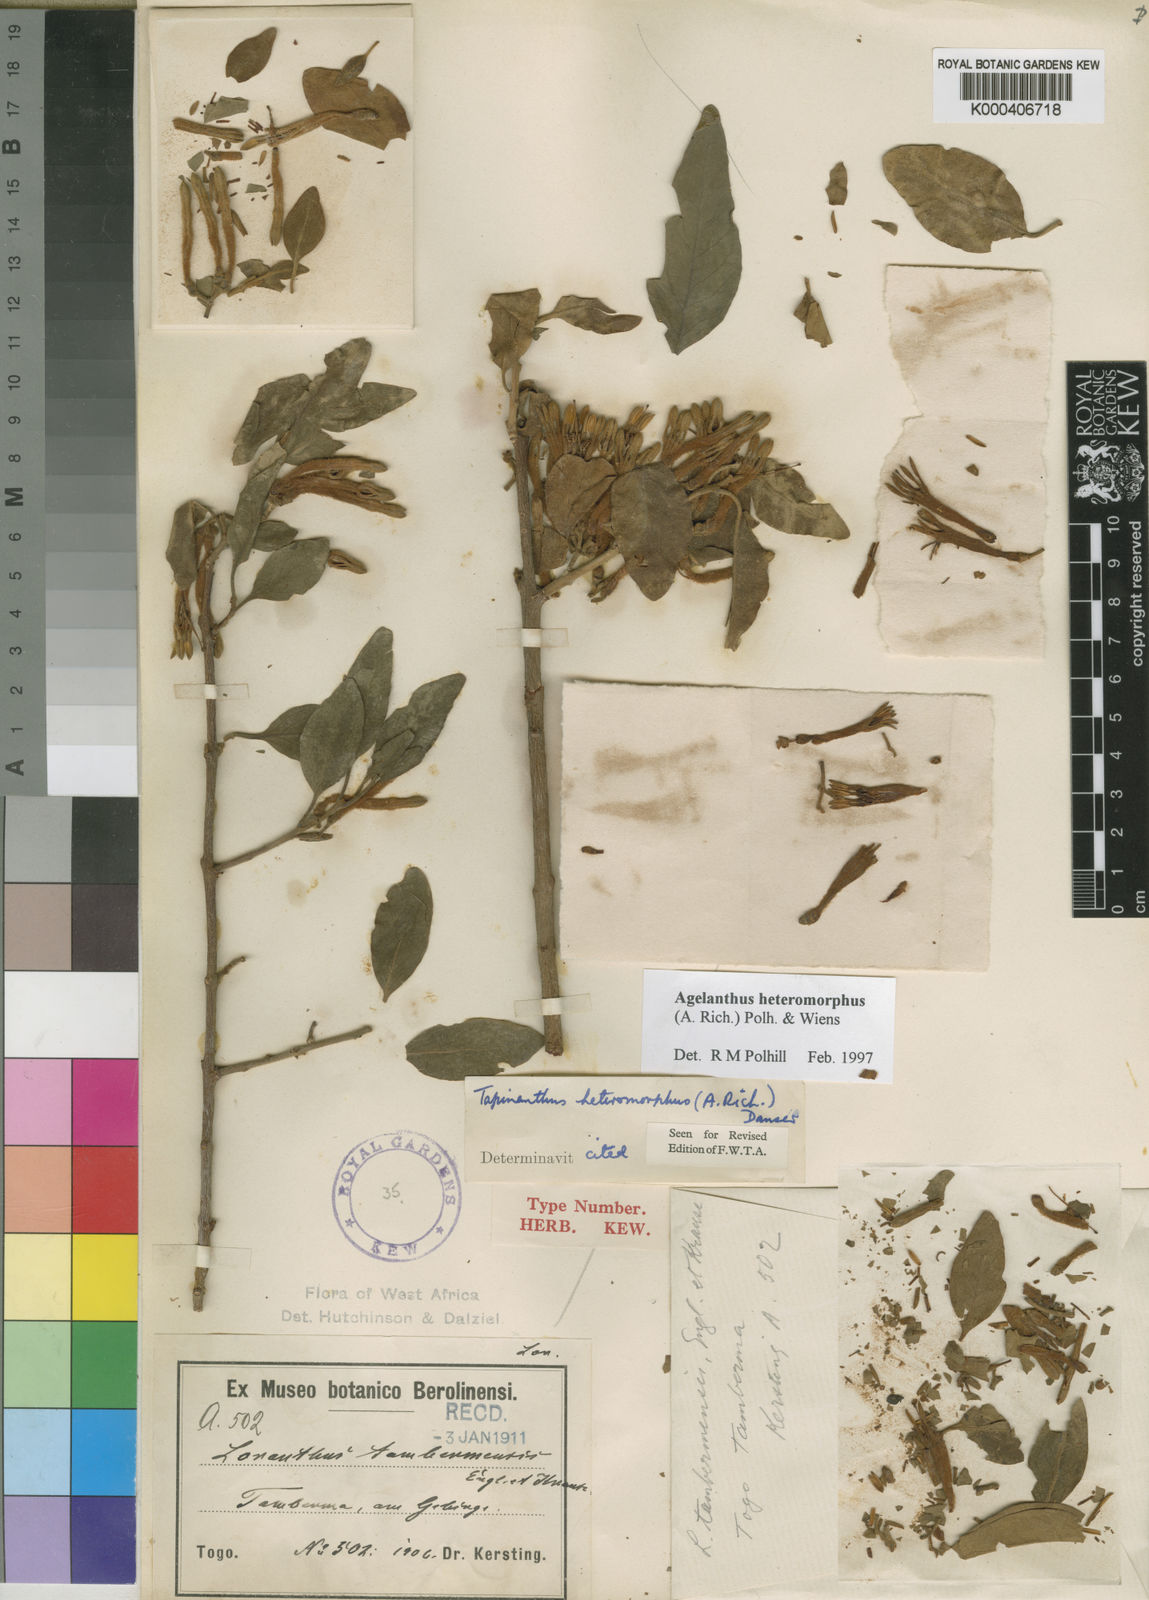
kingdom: Plantae
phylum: Tracheophyta
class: Magnoliopsida
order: Santalales
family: Loranthaceae
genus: Agelanthus
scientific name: Agelanthus heteromorphus
